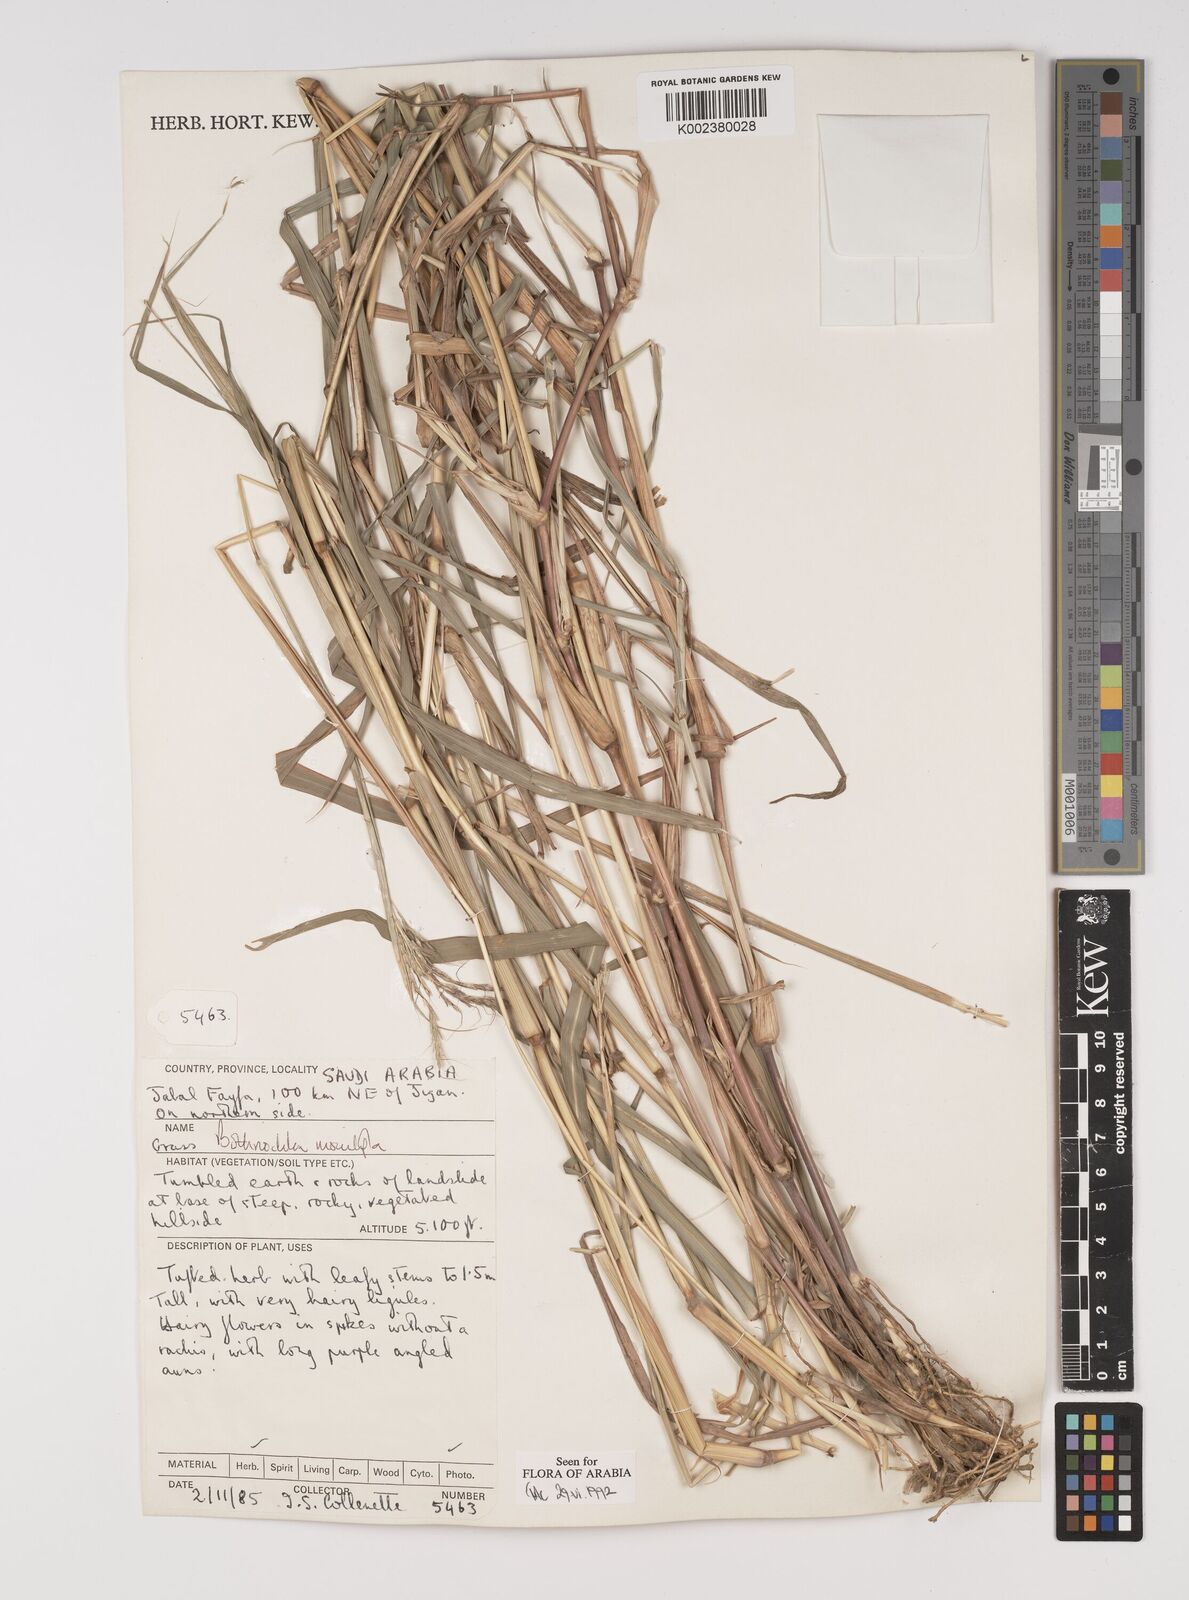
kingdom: Plantae
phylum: Tracheophyta
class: Liliopsida
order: Poales
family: Poaceae
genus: Bothriochloa
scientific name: Bothriochloa insculpta
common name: Creeping-bluegrass
